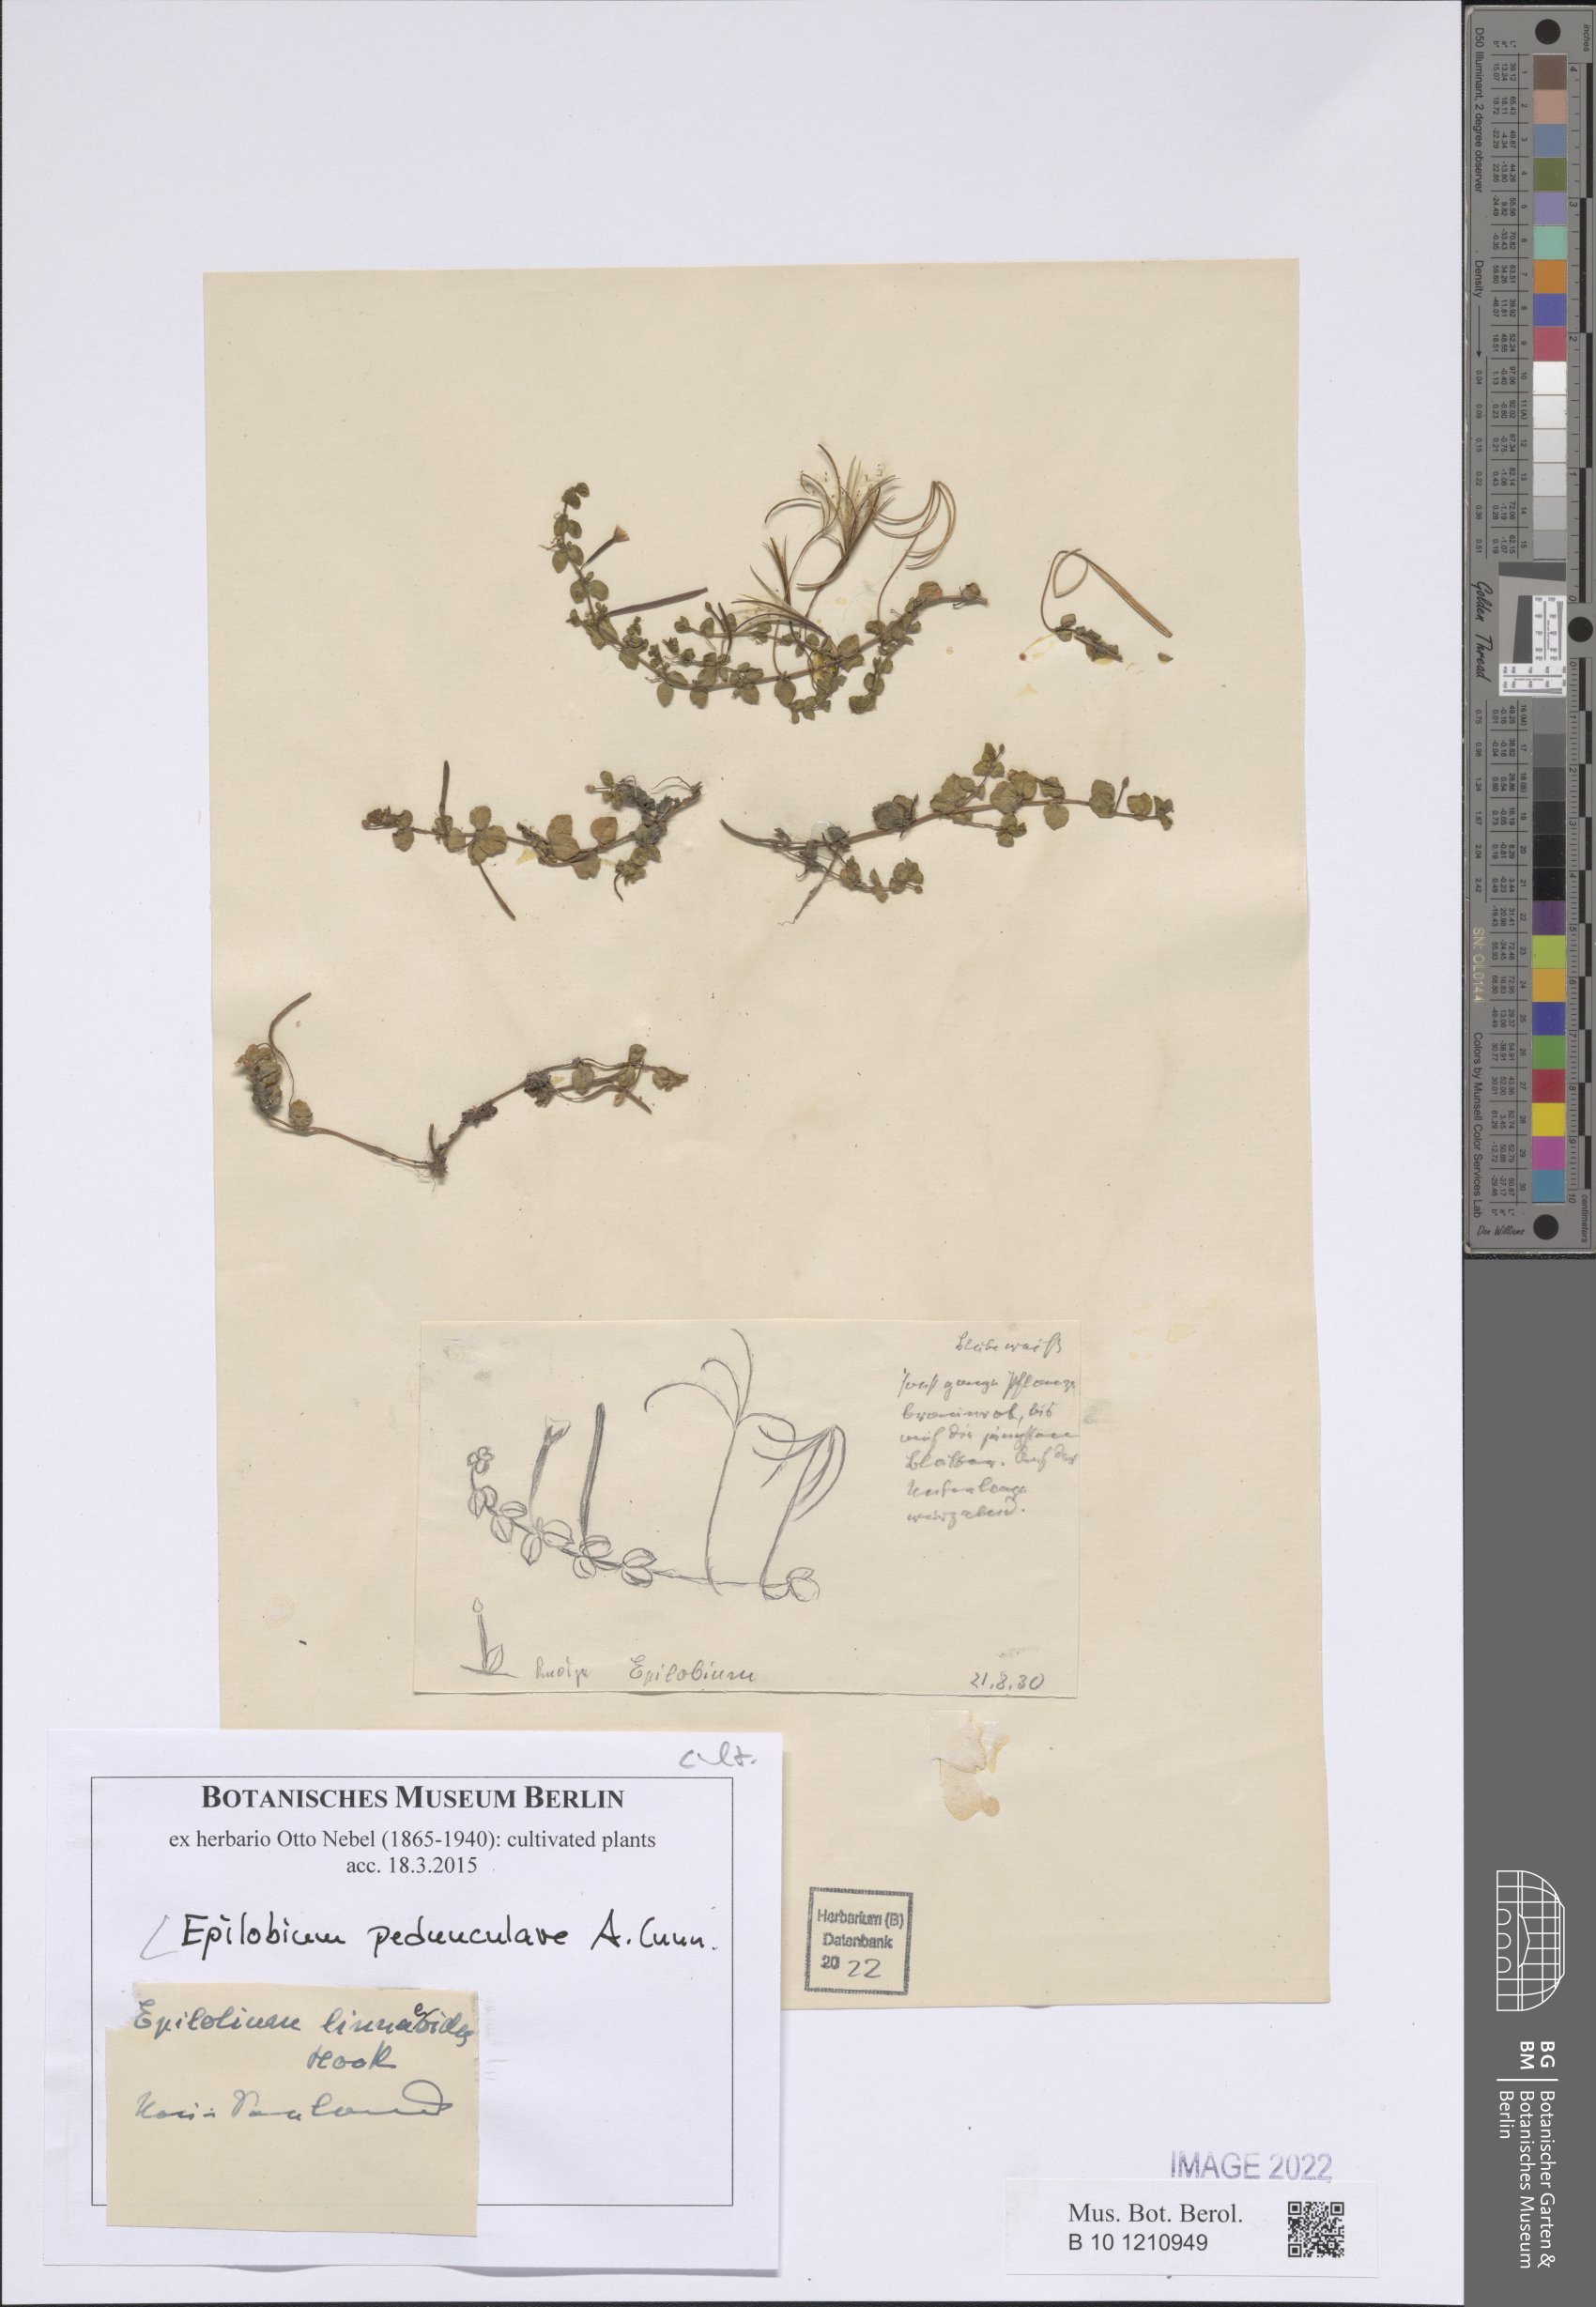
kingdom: Plantae
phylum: Tracheophyta
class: Magnoliopsida
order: Myrtales
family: Onagraceae
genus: Epilobium
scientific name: Epilobium pedunculare
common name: Rockery willowherb
